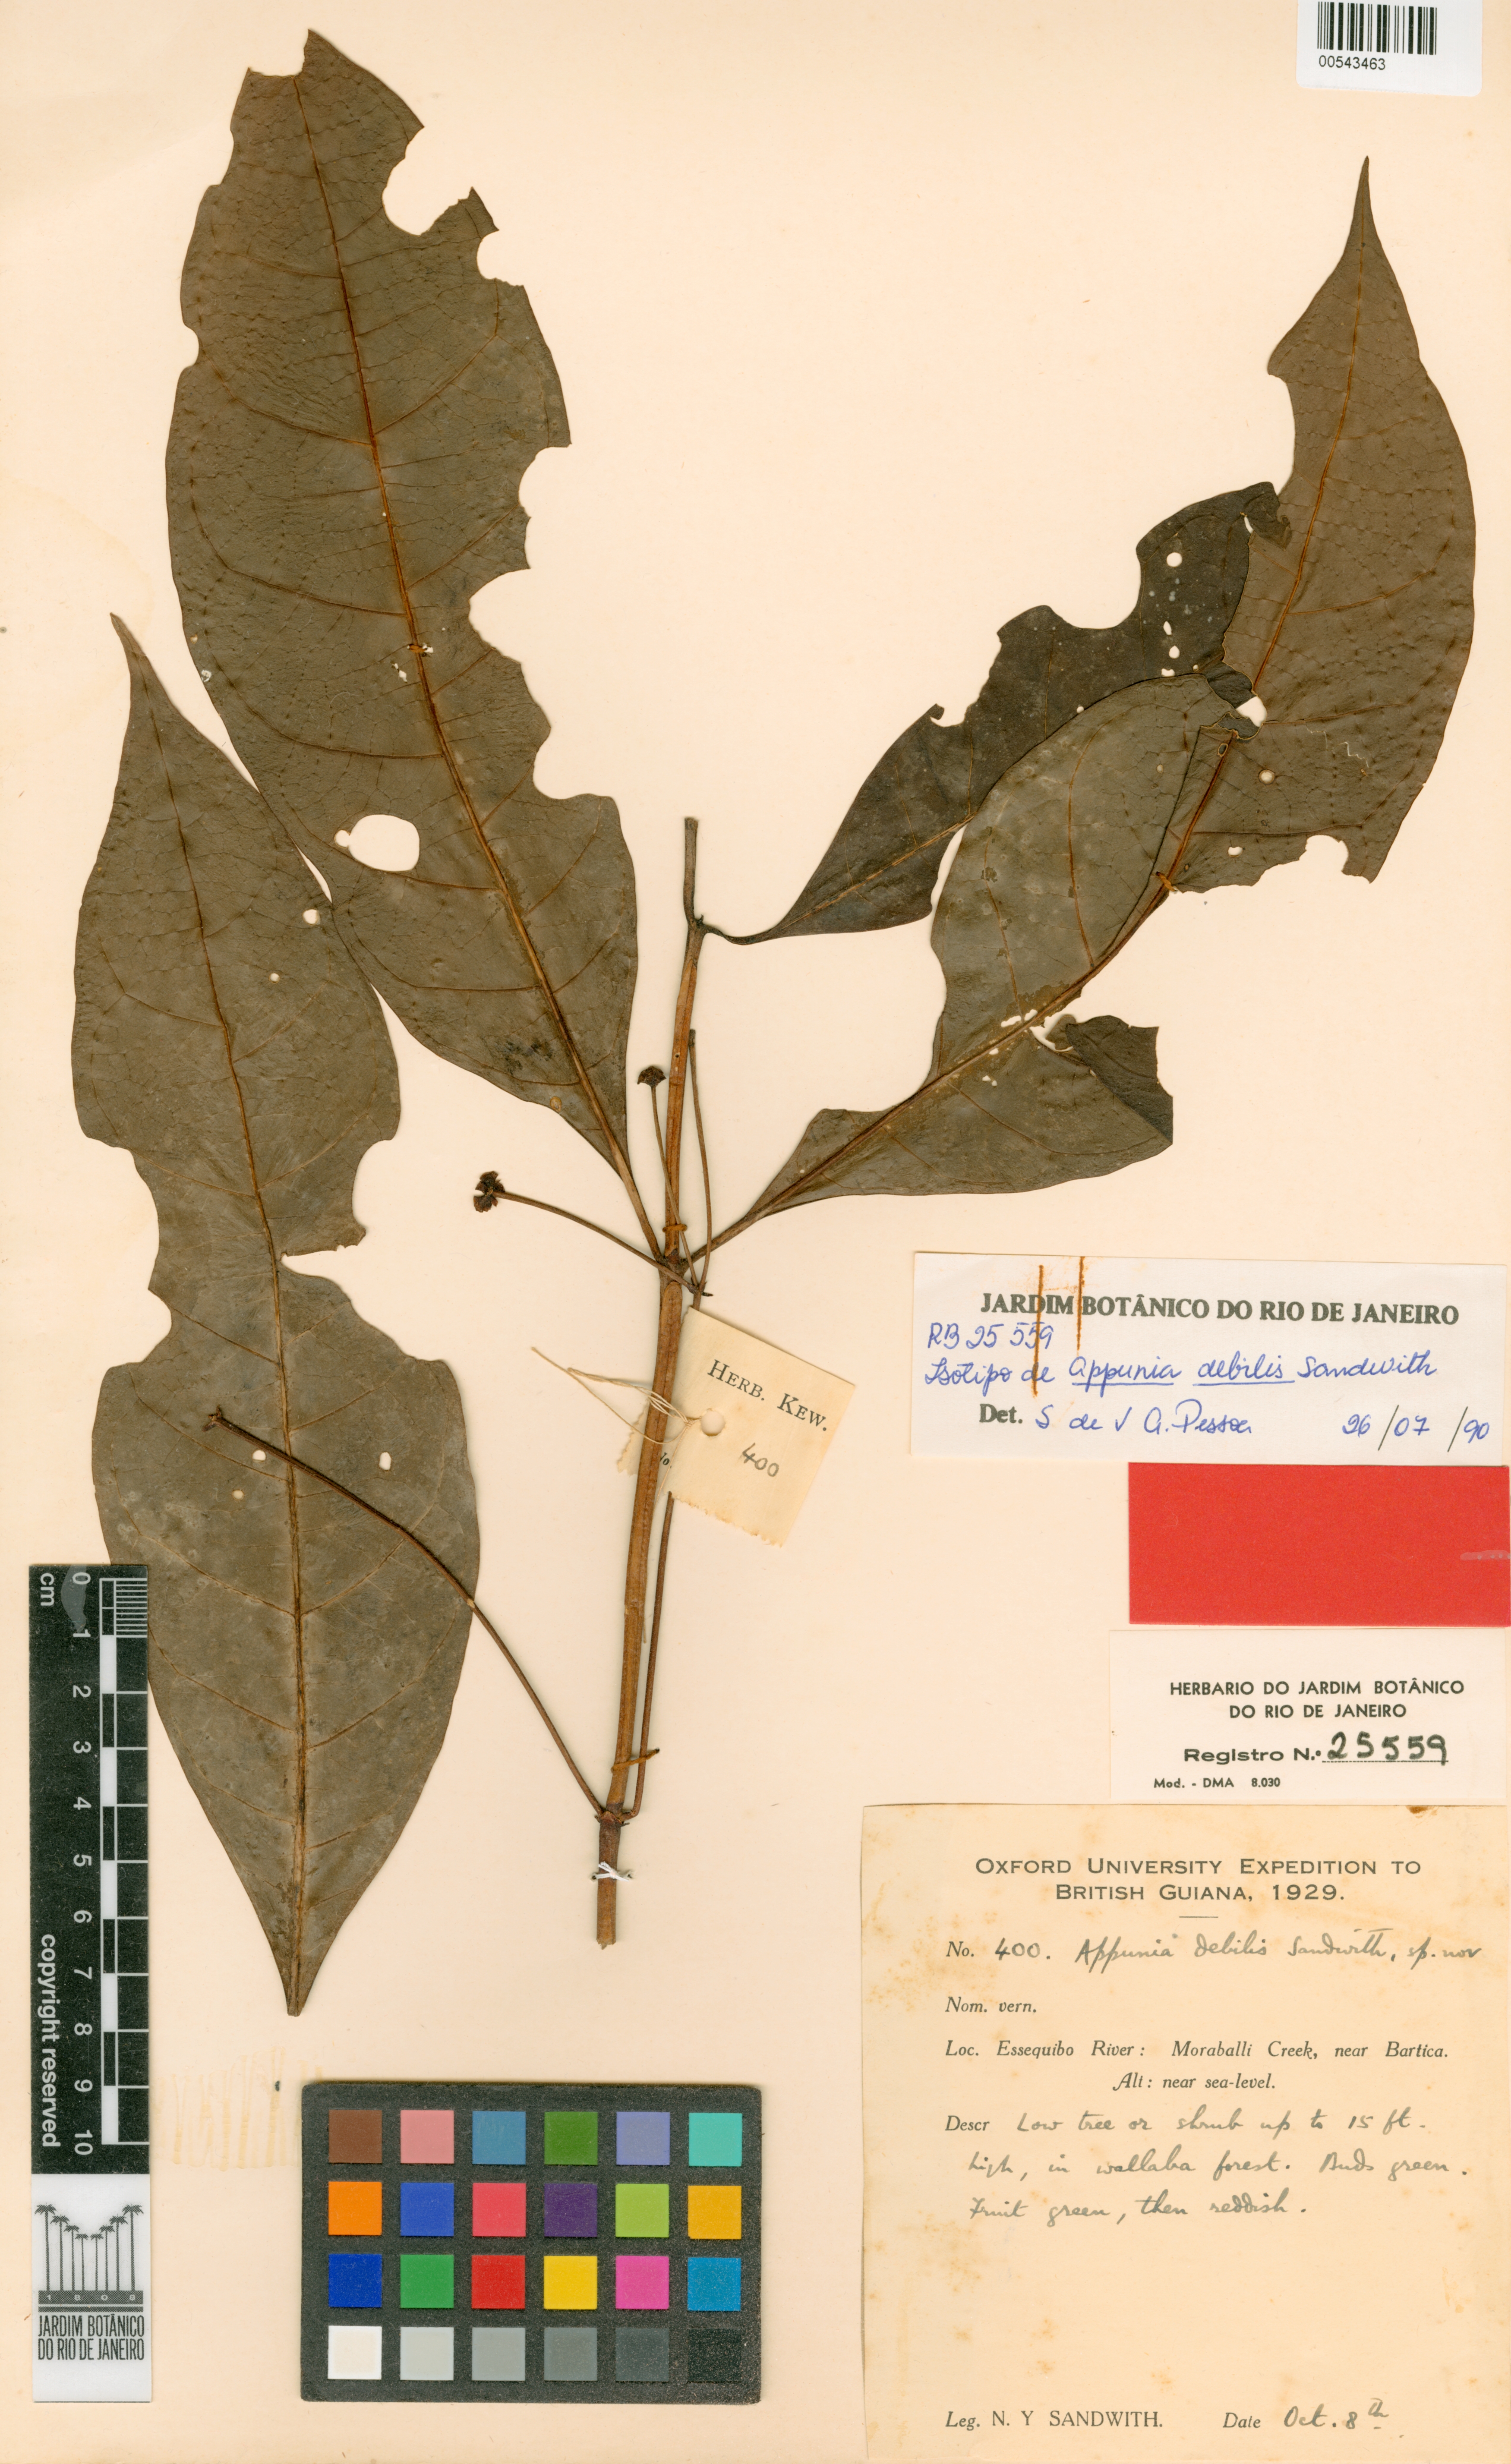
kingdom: Plantae
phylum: Tracheophyta
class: Magnoliopsida
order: Gentianales
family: Rubiaceae
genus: Appunia
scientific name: Appunia debilis
